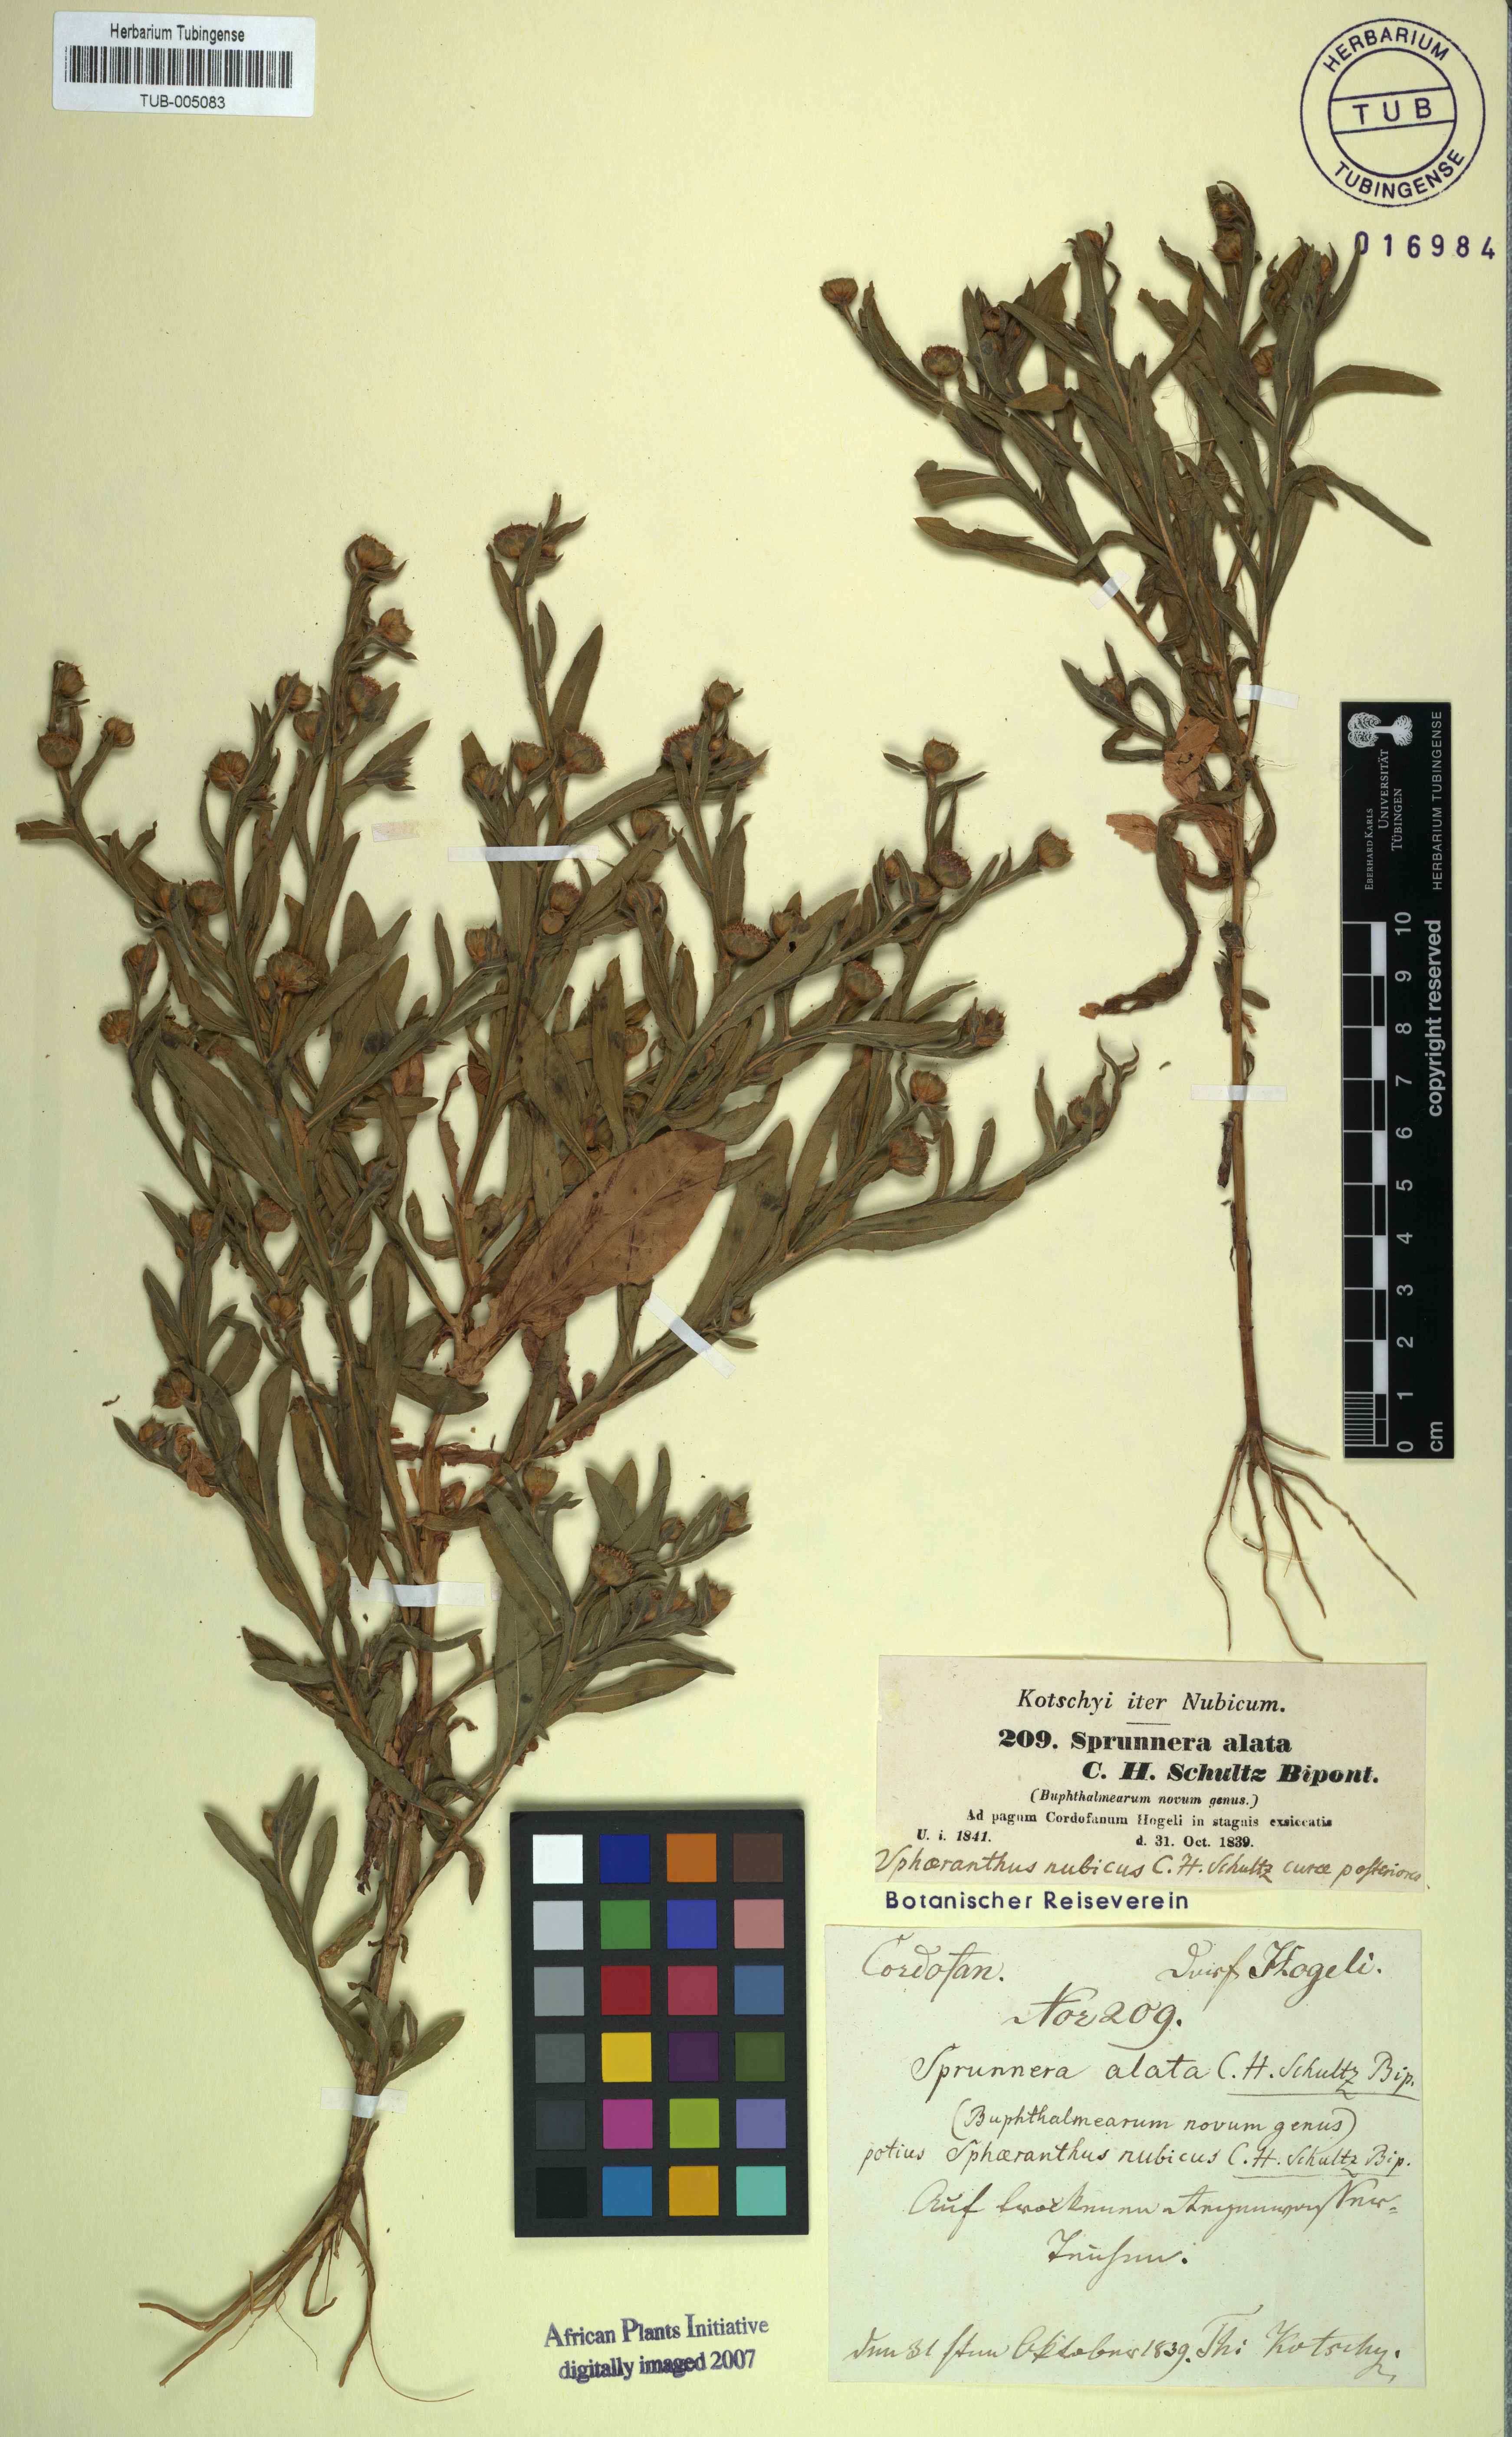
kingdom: Plantae
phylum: Tracheophyta
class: Magnoliopsida
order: Asterales
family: Asteraceae
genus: Sphaeranthus
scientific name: Sphaeranthus angustifolius
